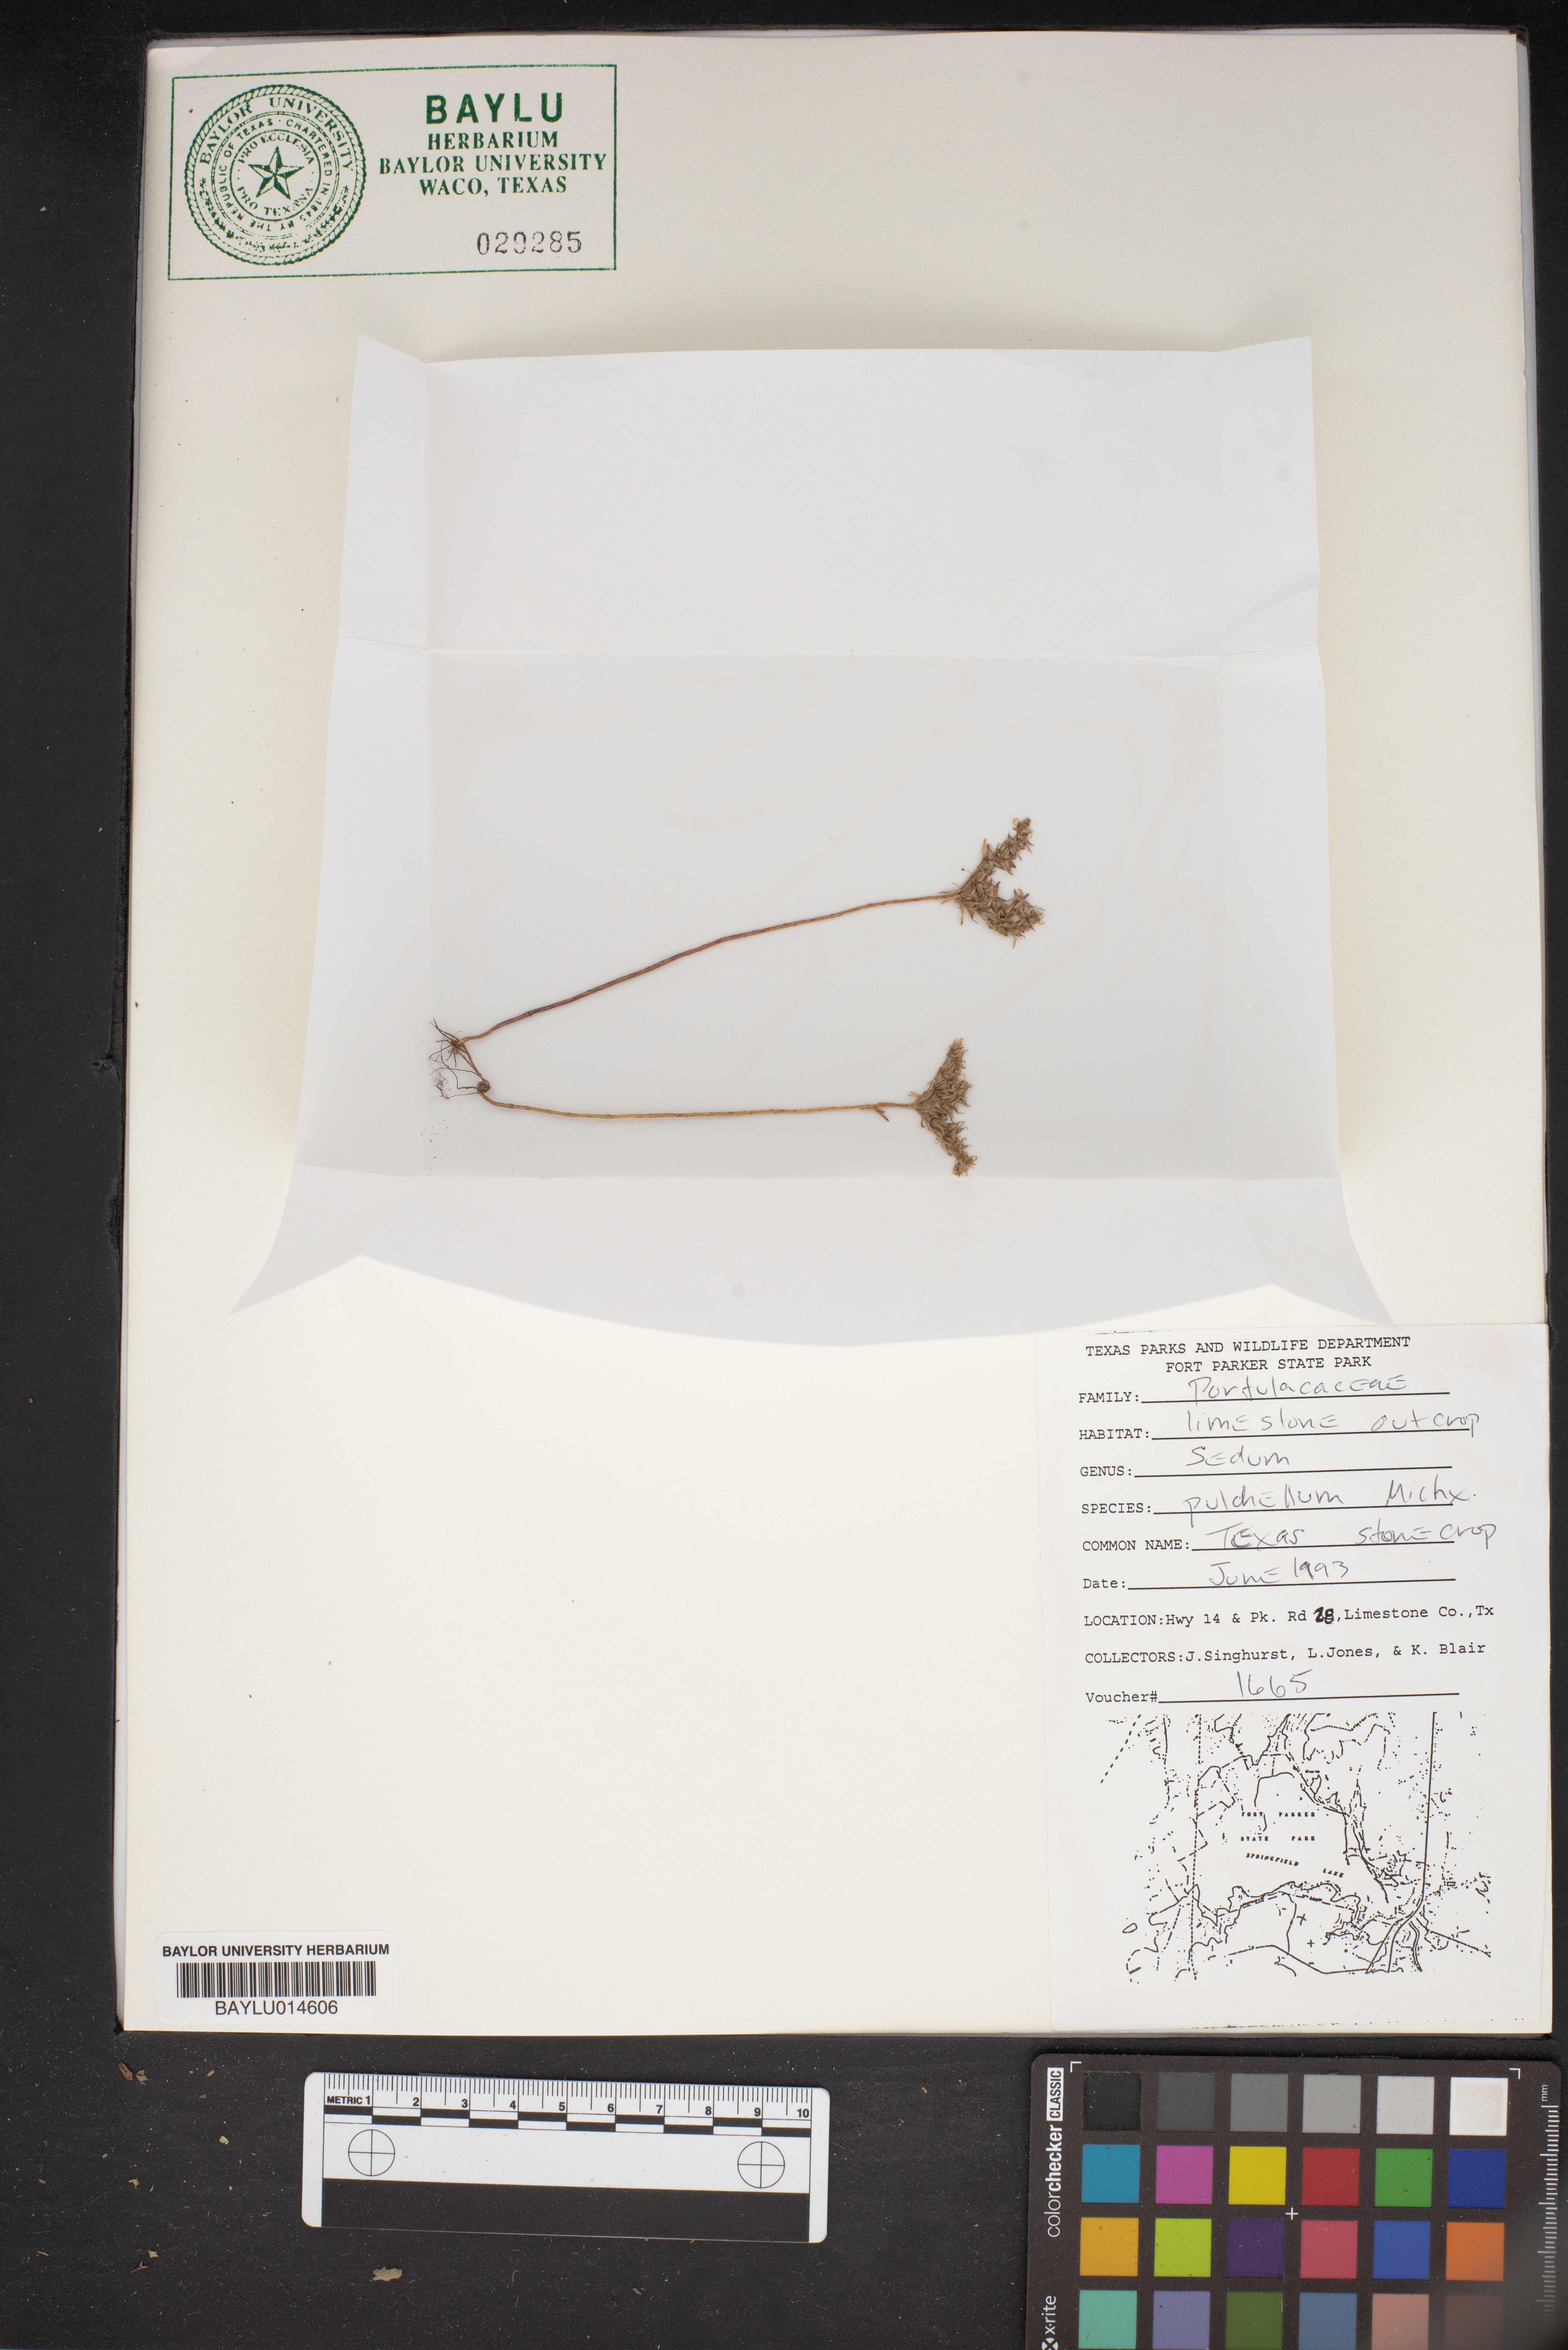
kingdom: Plantae
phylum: Tracheophyta
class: Magnoliopsida
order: Saxifragales
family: Crassulaceae
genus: Sedum
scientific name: Sedum pulchellum
